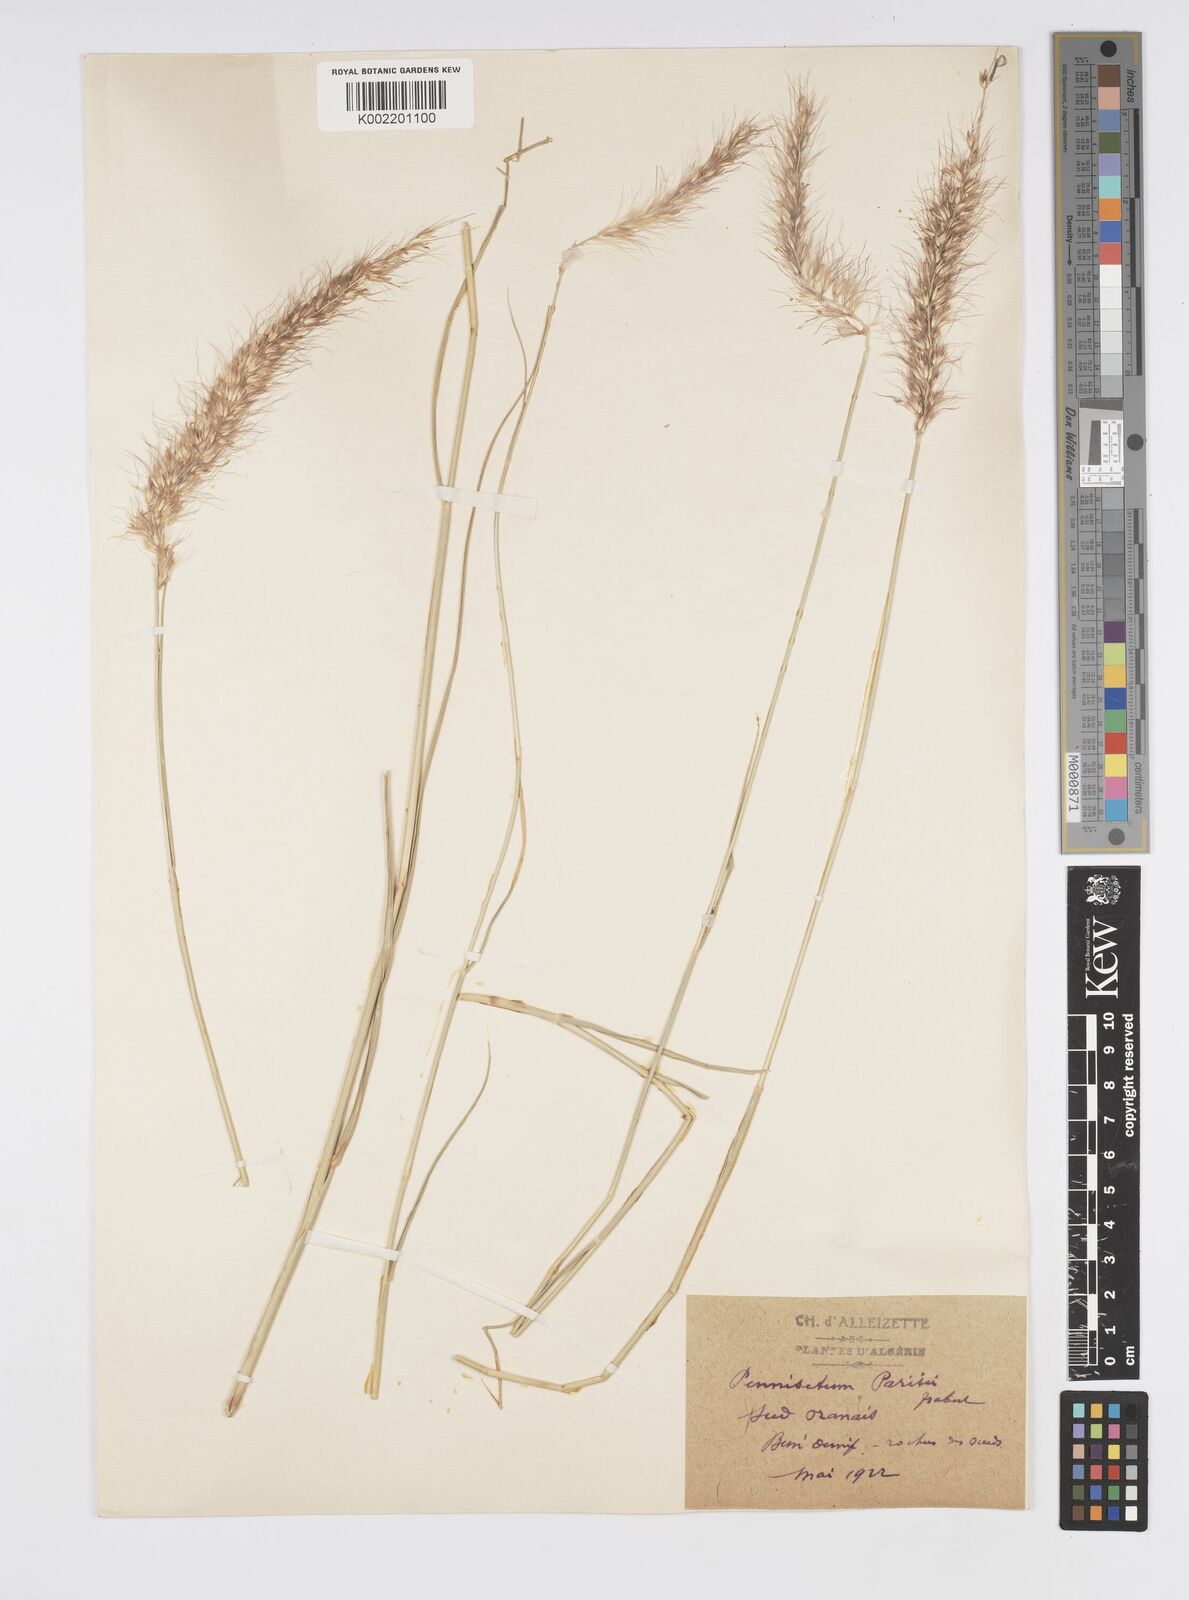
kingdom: Plantae
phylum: Tracheophyta
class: Liliopsida
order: Poales
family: Poaceae
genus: Cenchrus
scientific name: Cenchrus setaceus
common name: Crimson fountaingrass
